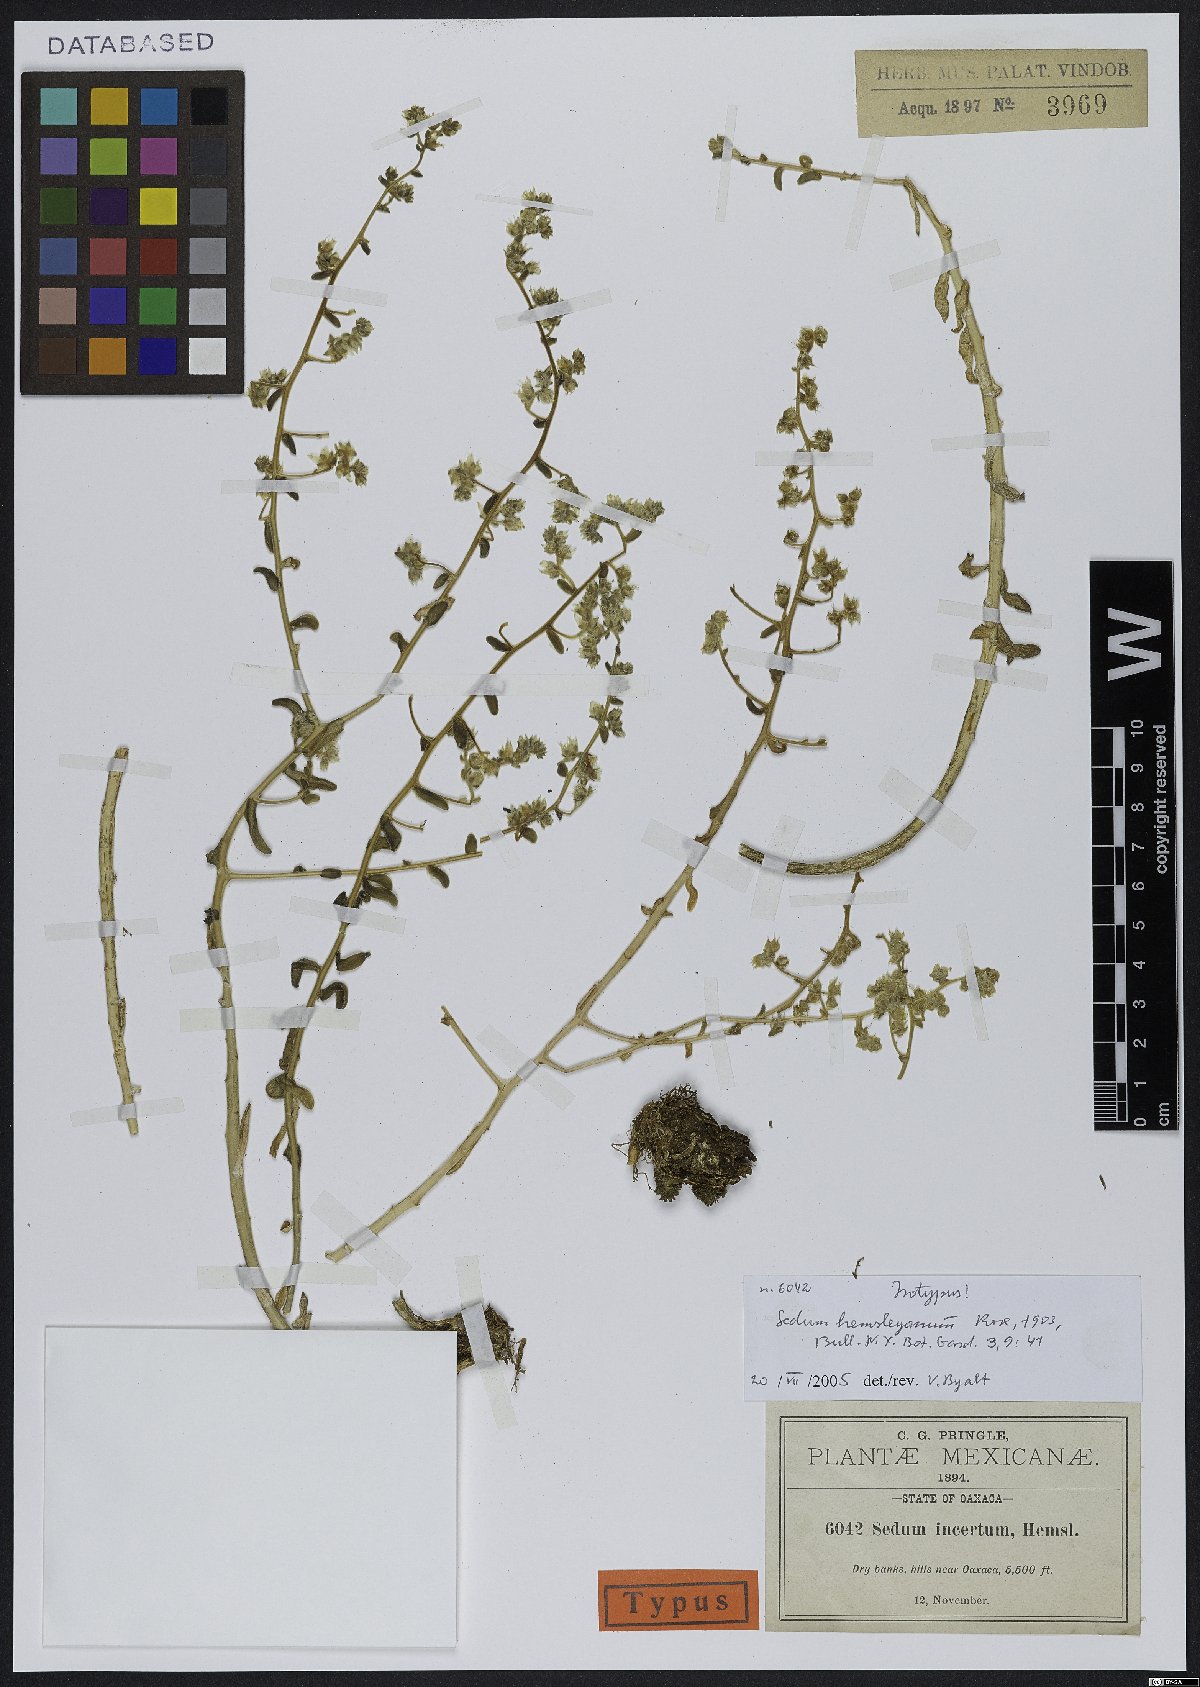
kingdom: Plantae
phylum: Tracheophyta
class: Magnoliopsida
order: Saxifragales
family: Crassulaceae
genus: Sedum
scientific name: Sedum hemsleyanum
